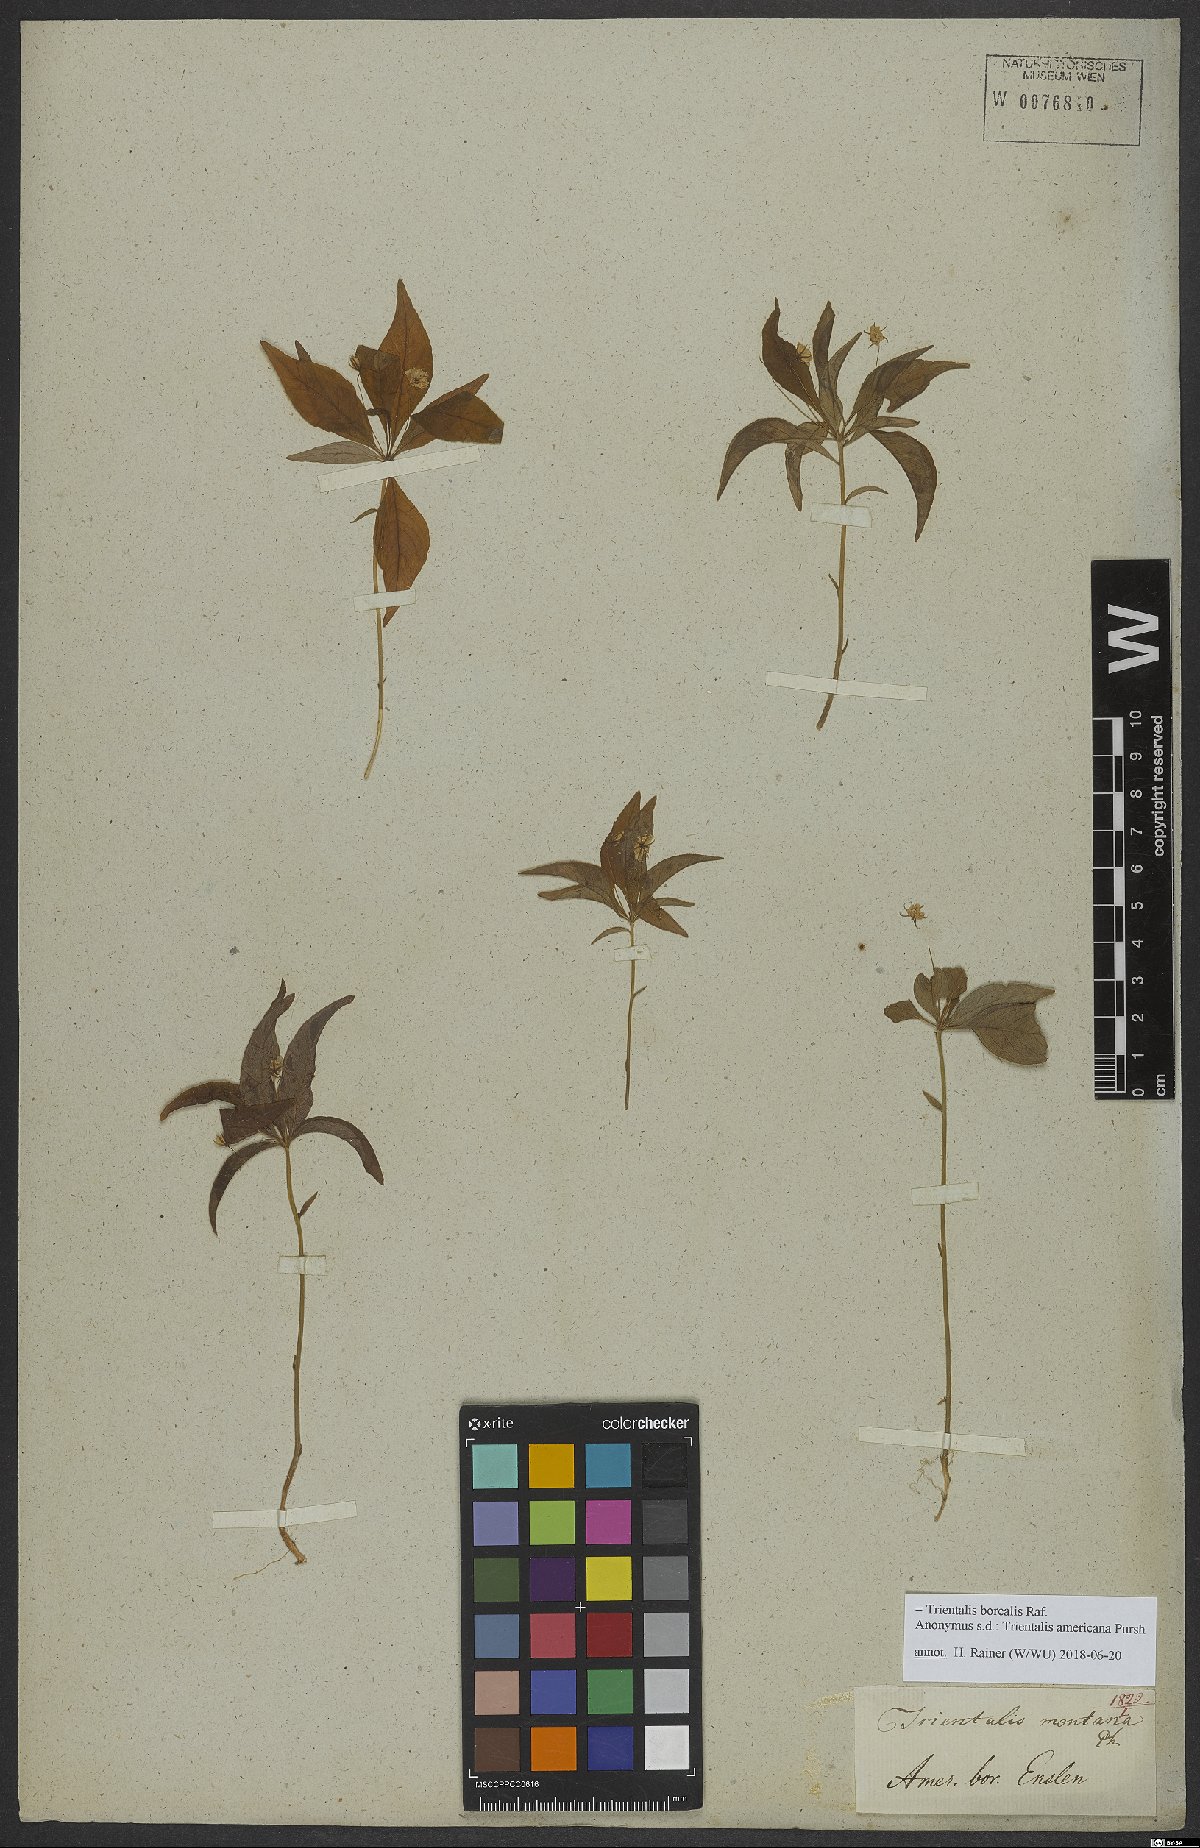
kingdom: Plantae
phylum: Tracheophyta
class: Magnoliopsida
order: Ericales
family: Primulaceae
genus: Lysimachia
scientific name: Lysimachia borealis
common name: American starflower
